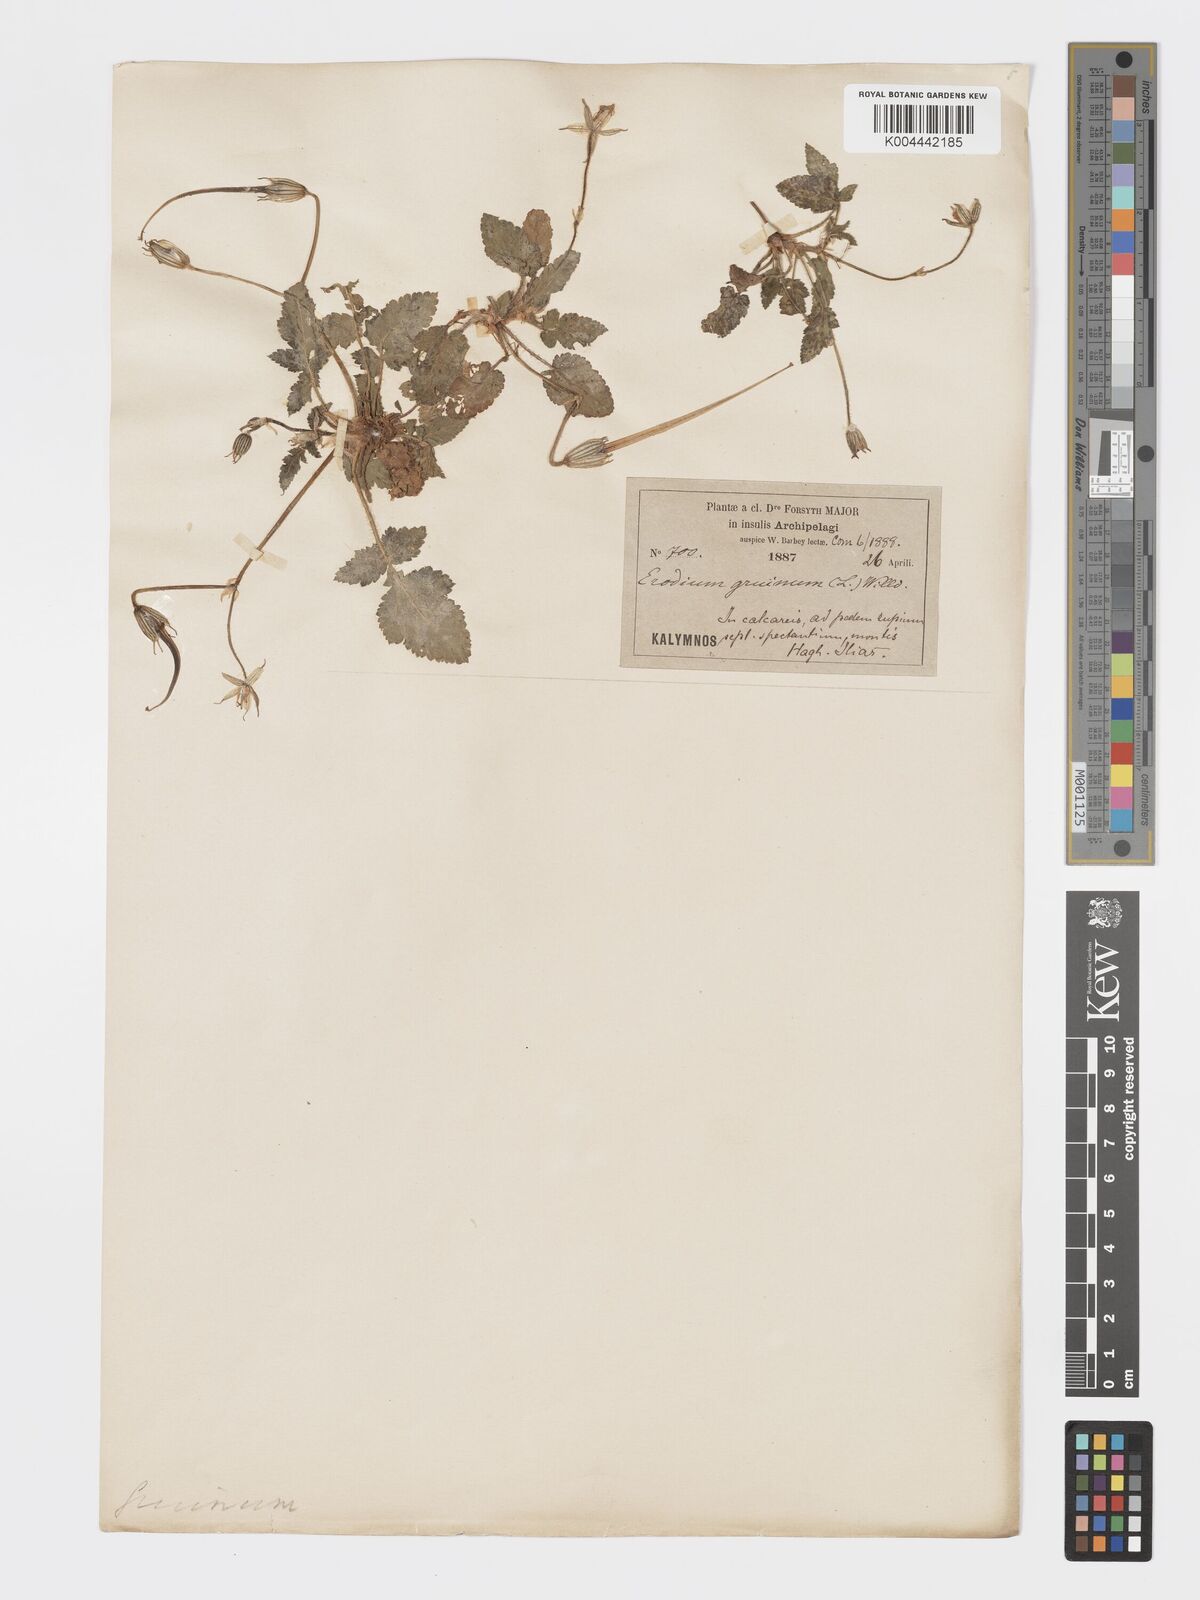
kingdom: Plantae
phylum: Tracheophyta
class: Magnoliopsida
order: Geraniales
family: Geraniaceae
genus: Erodium
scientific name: Erodium gruinum
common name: Iranian stork's bill
